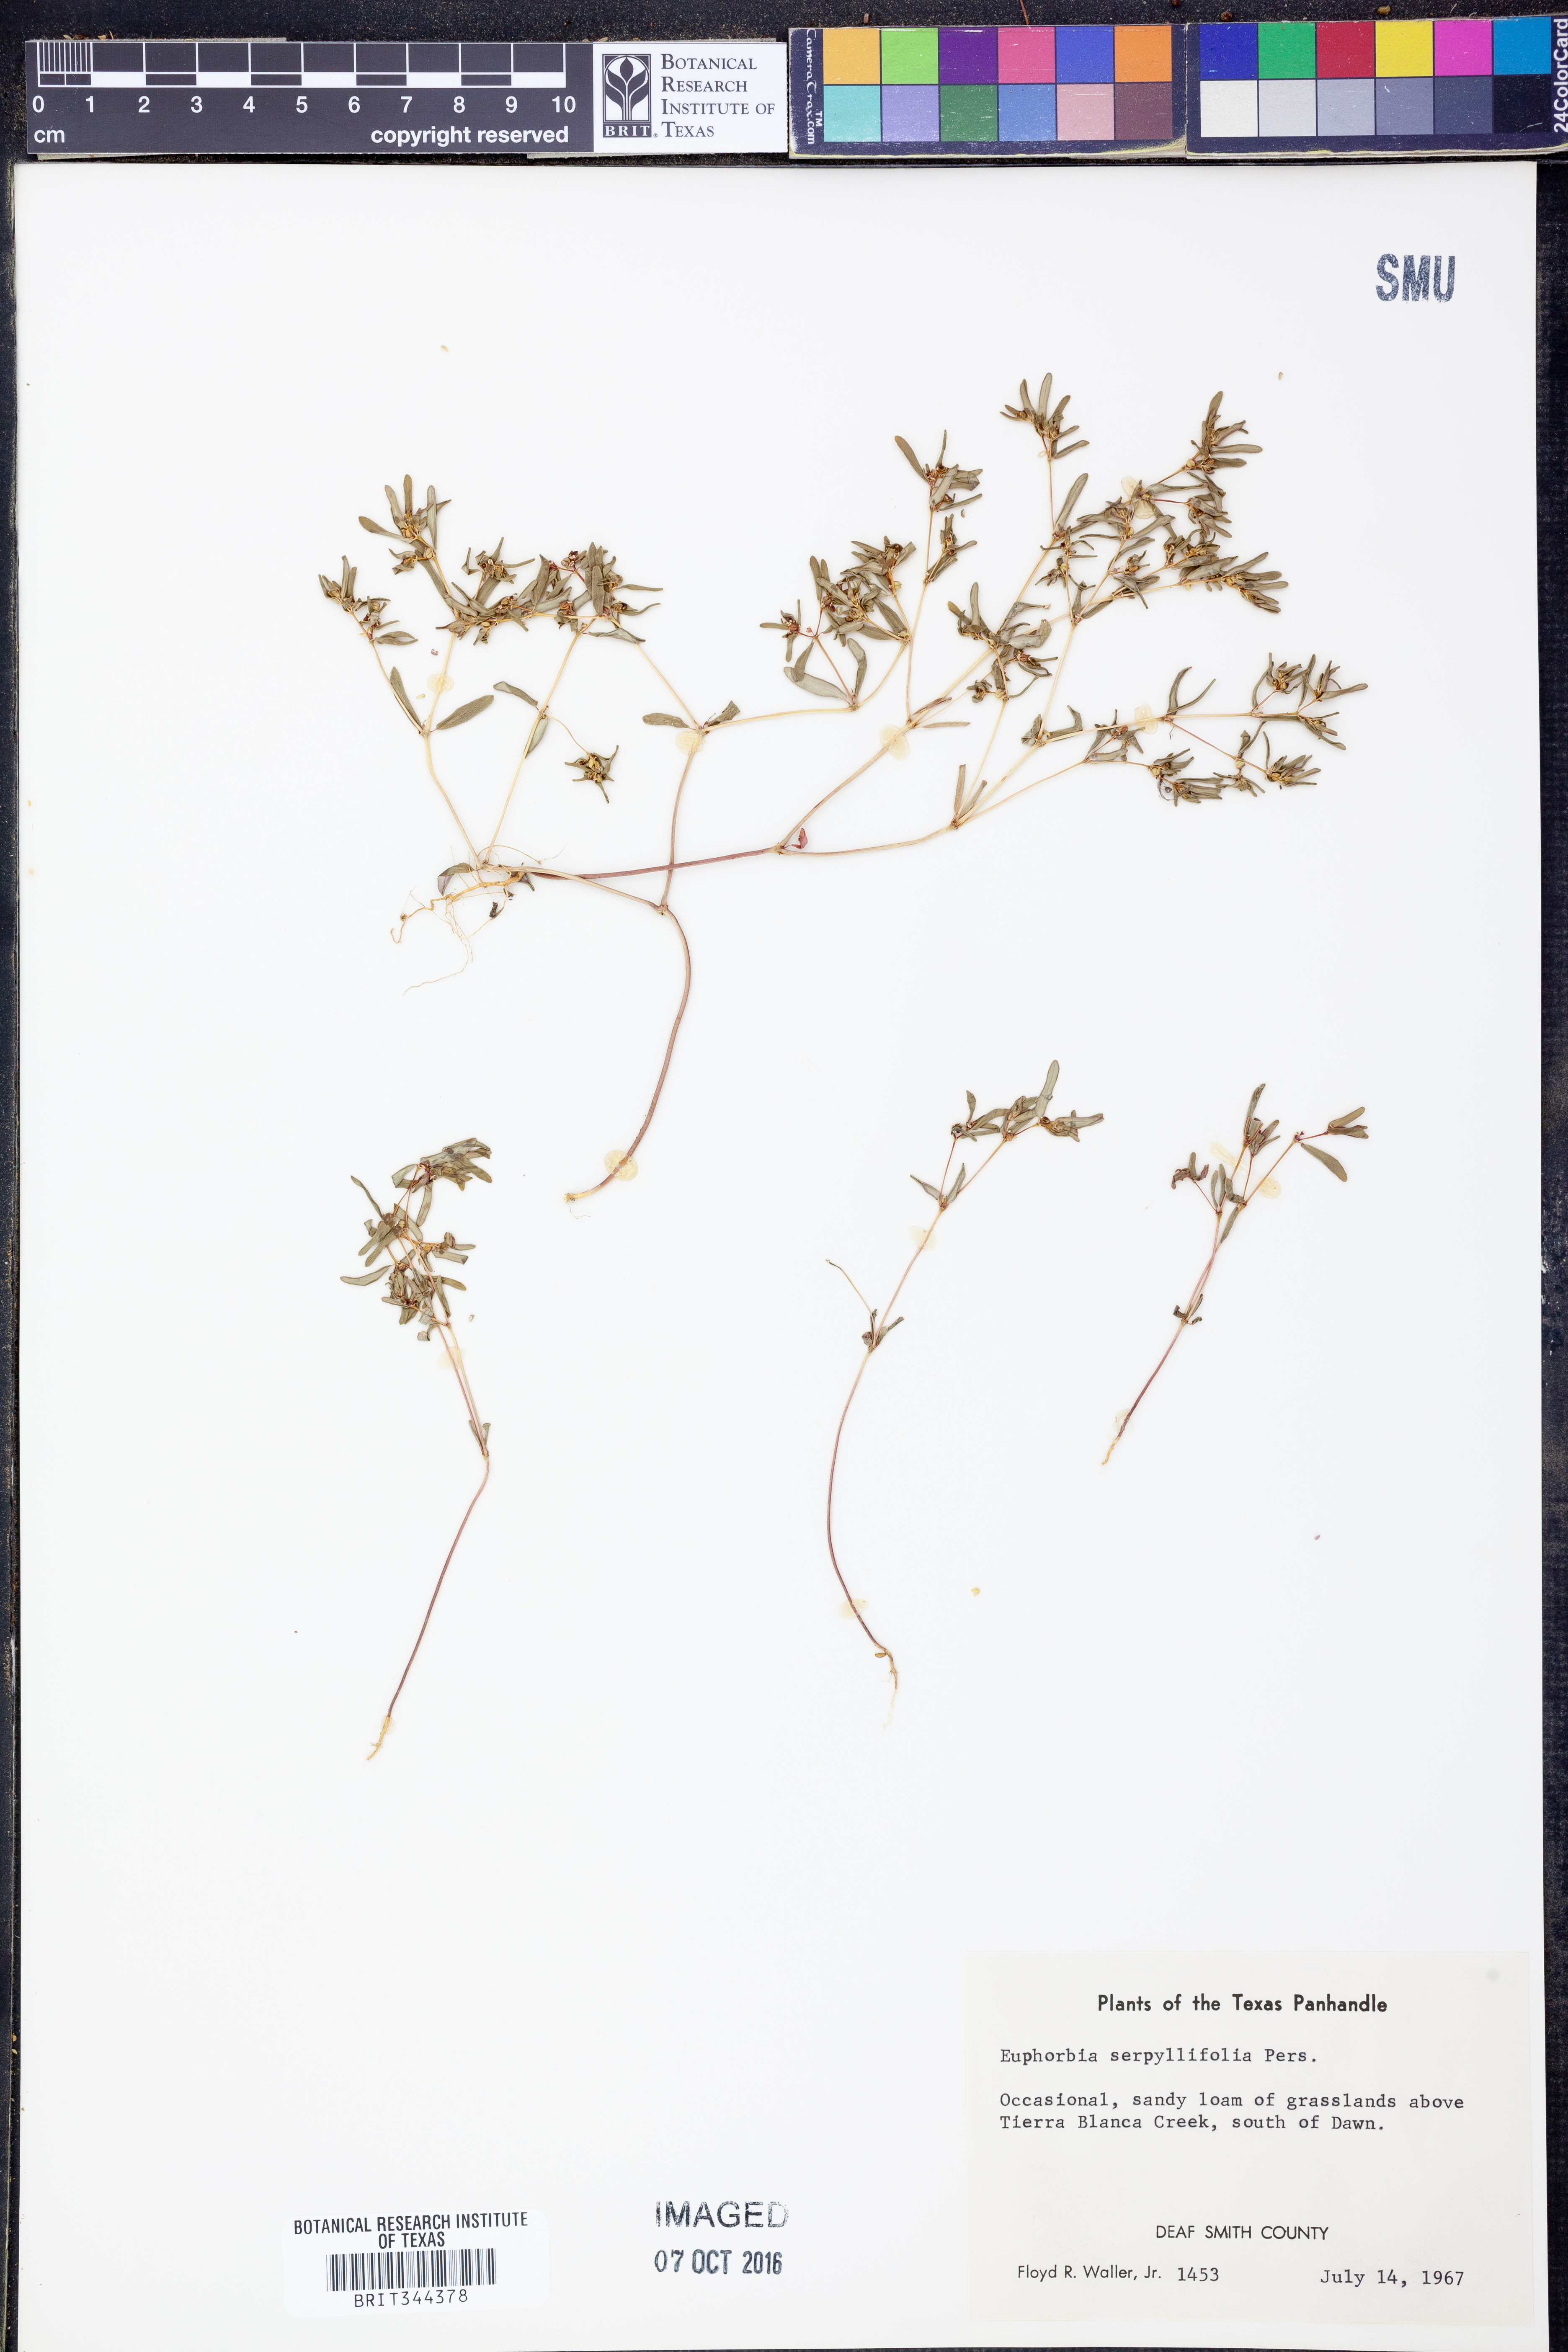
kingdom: Plantae
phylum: Tracheophyta
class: Magnoliopsida
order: Malpighiales
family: Euphorbiaceae
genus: Euphorbia
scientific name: Euphorbia serpillifolia
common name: Thyme-leaf spurge
